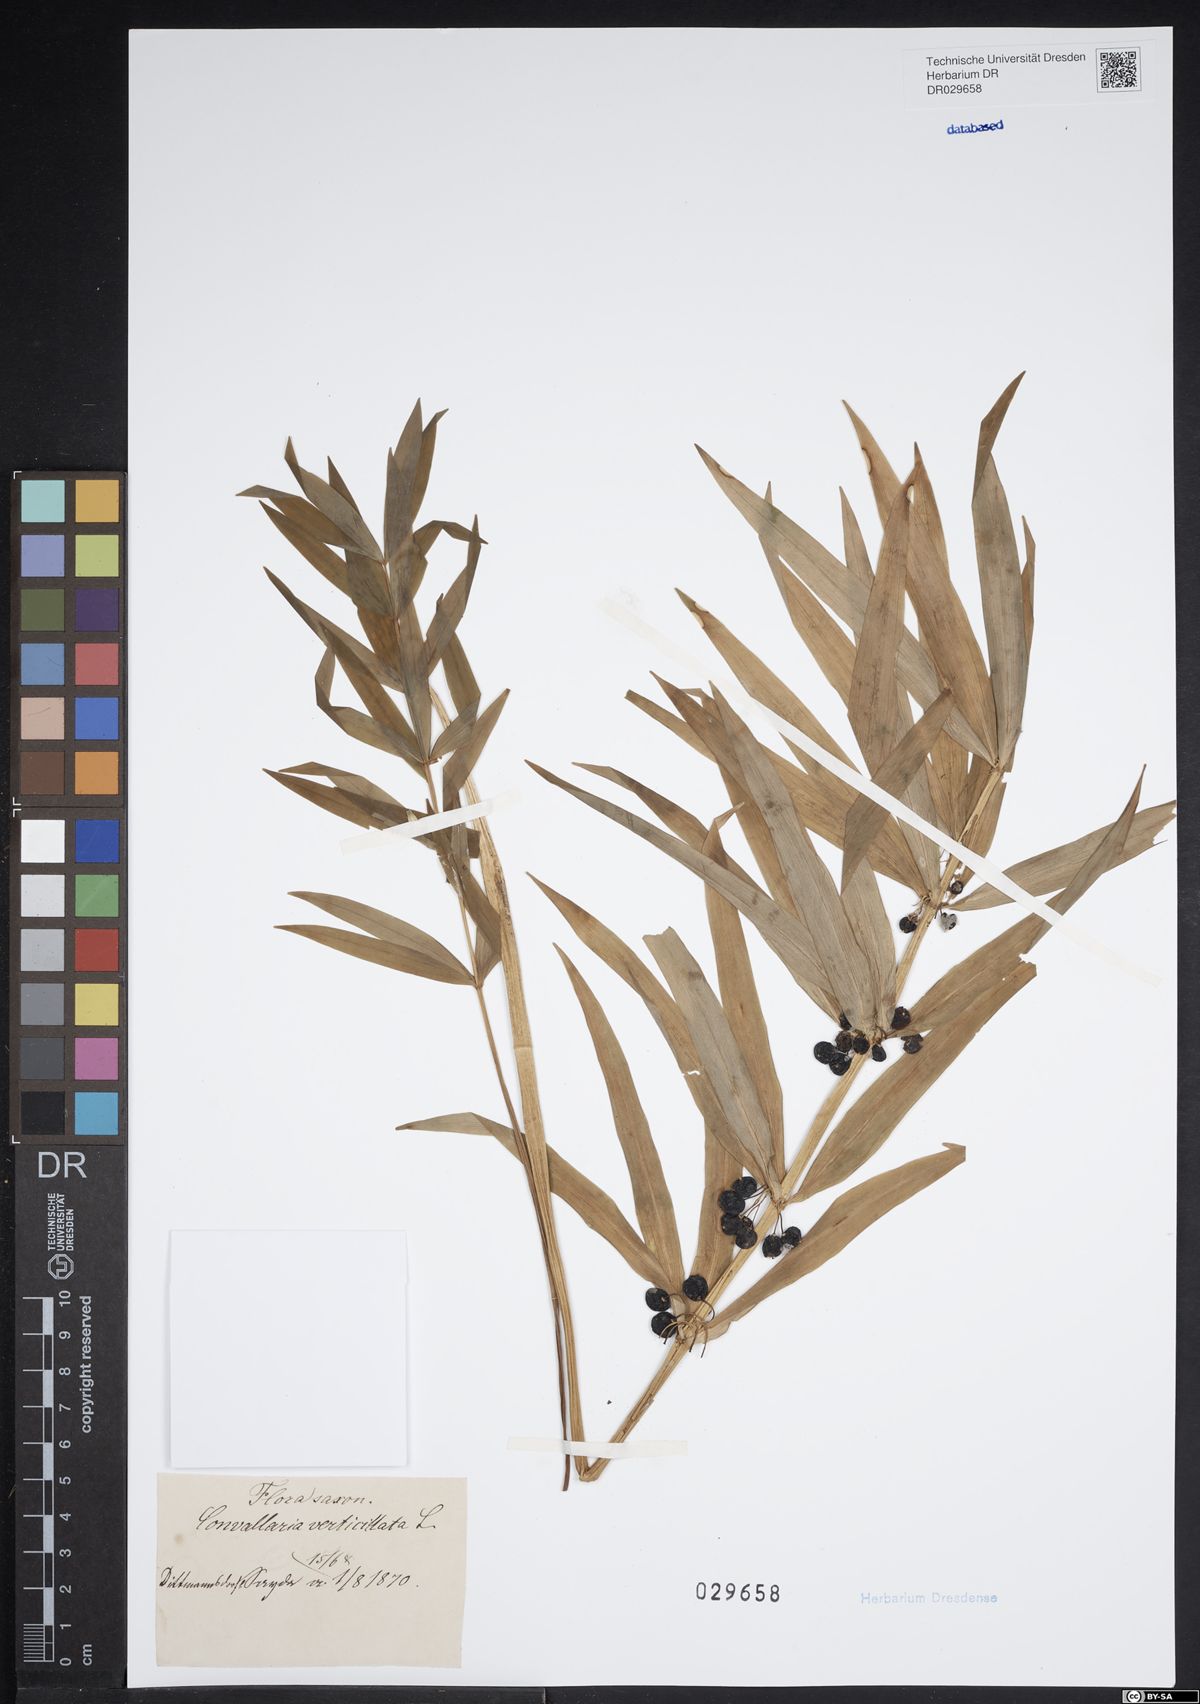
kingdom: Plantae
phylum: Tracheophyta
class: Liliopsida
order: Asparagales
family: Asparagaceae
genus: Polygonatum
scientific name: Polygonatum verticillatum
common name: Whorled solomon's-seal
